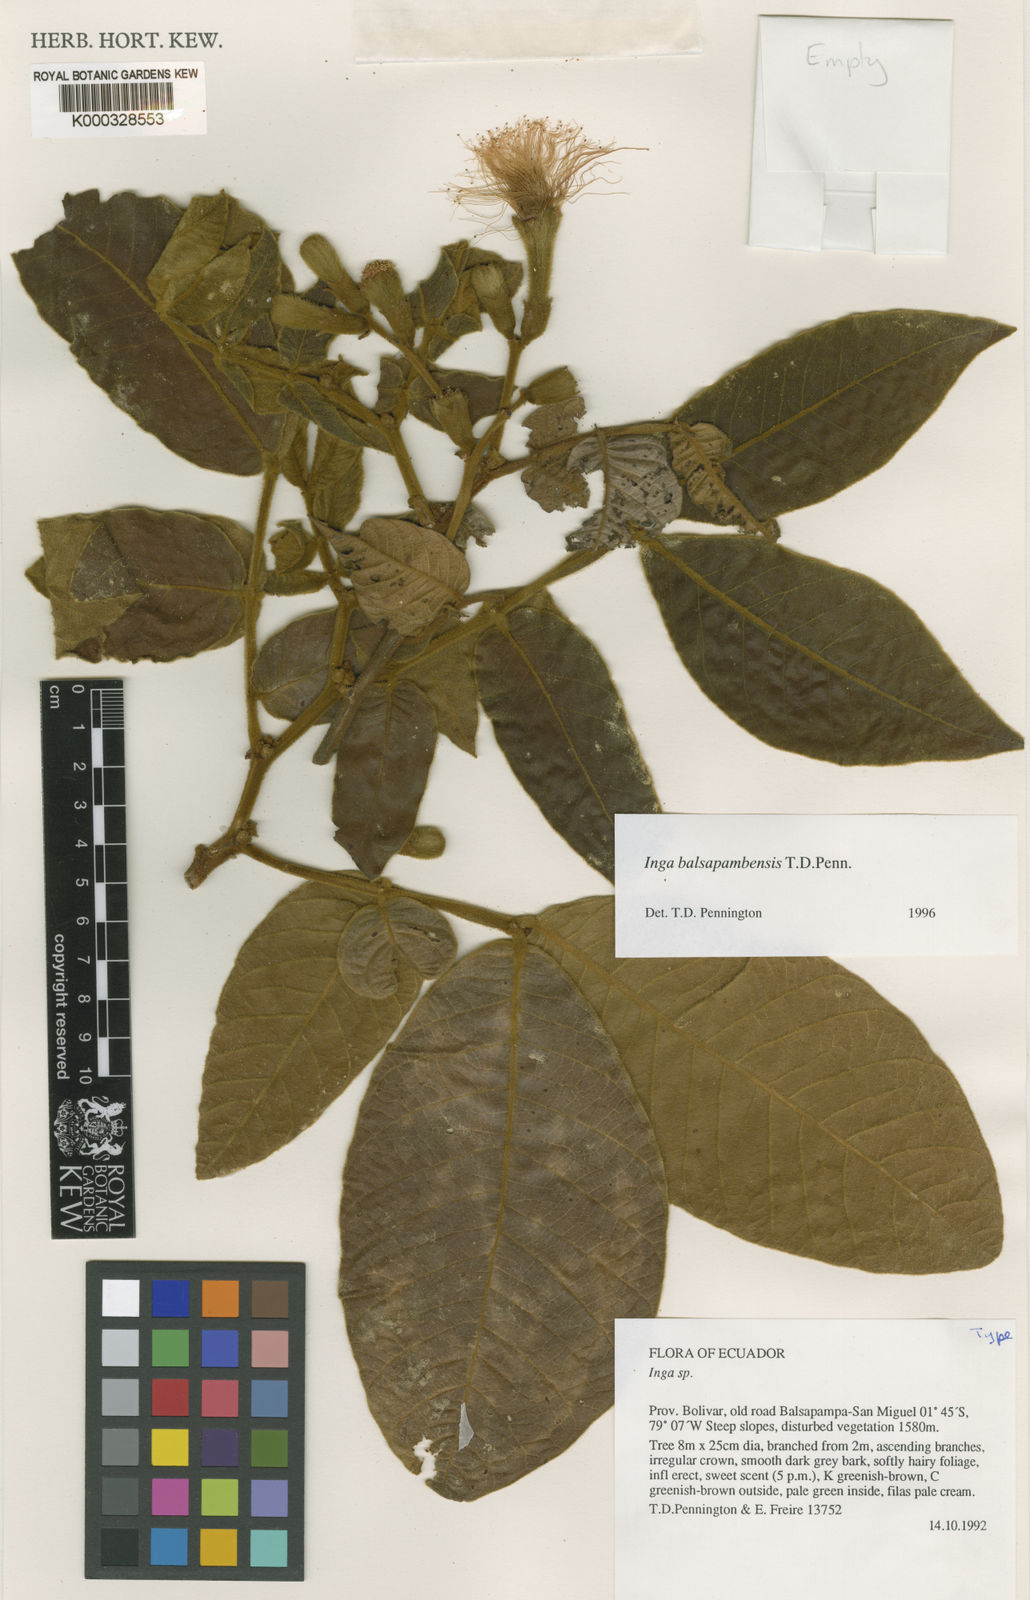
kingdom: Plantae
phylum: Tracheophyta
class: Magnoliopsida
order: Fabales
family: Fabaceae
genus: Inga
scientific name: Inga balsapambensis
